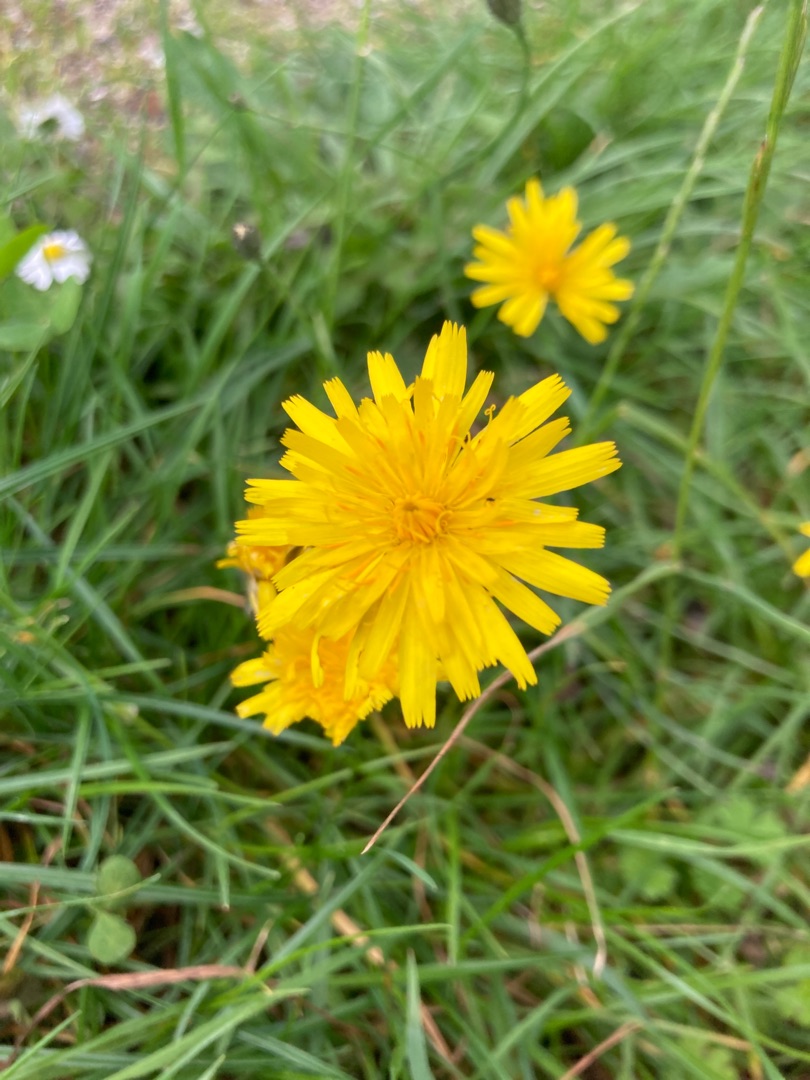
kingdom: Plantae
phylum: Tracheophyta
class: Magnoliopsida
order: Asterales
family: Asteraceae
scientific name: Asteraceae
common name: Kurvblomstfamilien
